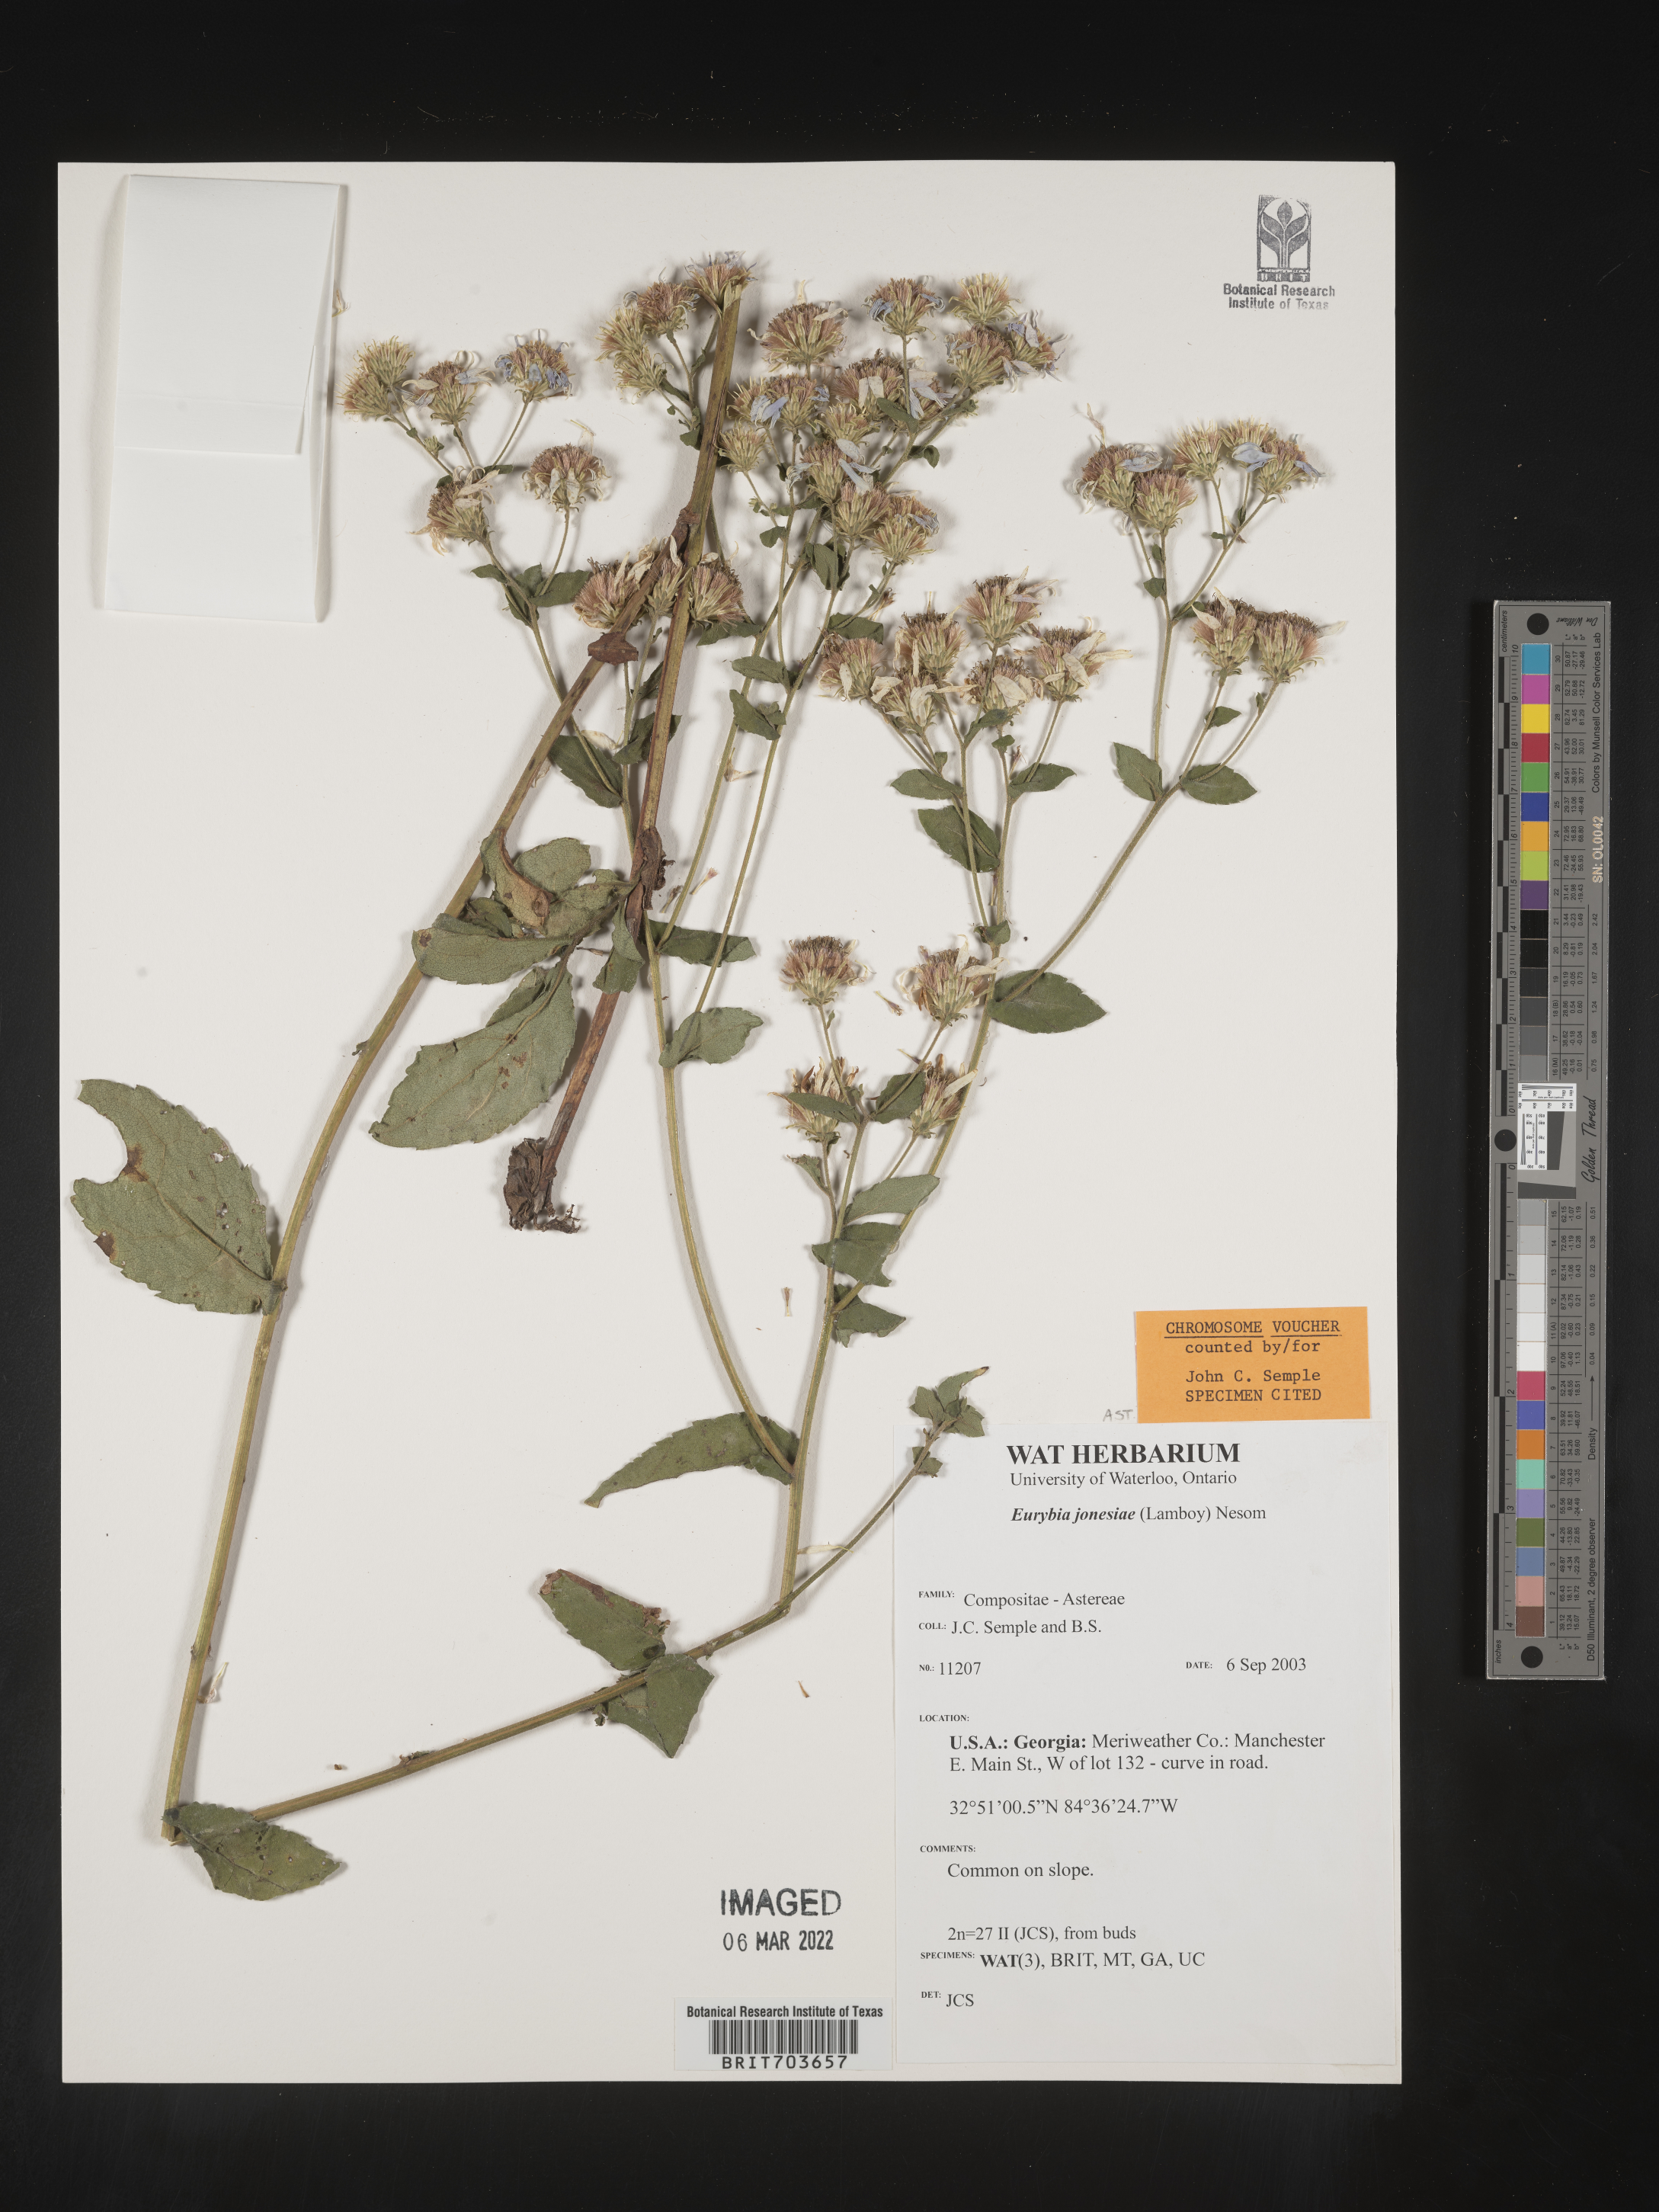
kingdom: Plantae
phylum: Tracheophyta
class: Magnoliopsida
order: Asterales
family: Asteraceae
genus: Eurybia
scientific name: Eurybia jonesiae
